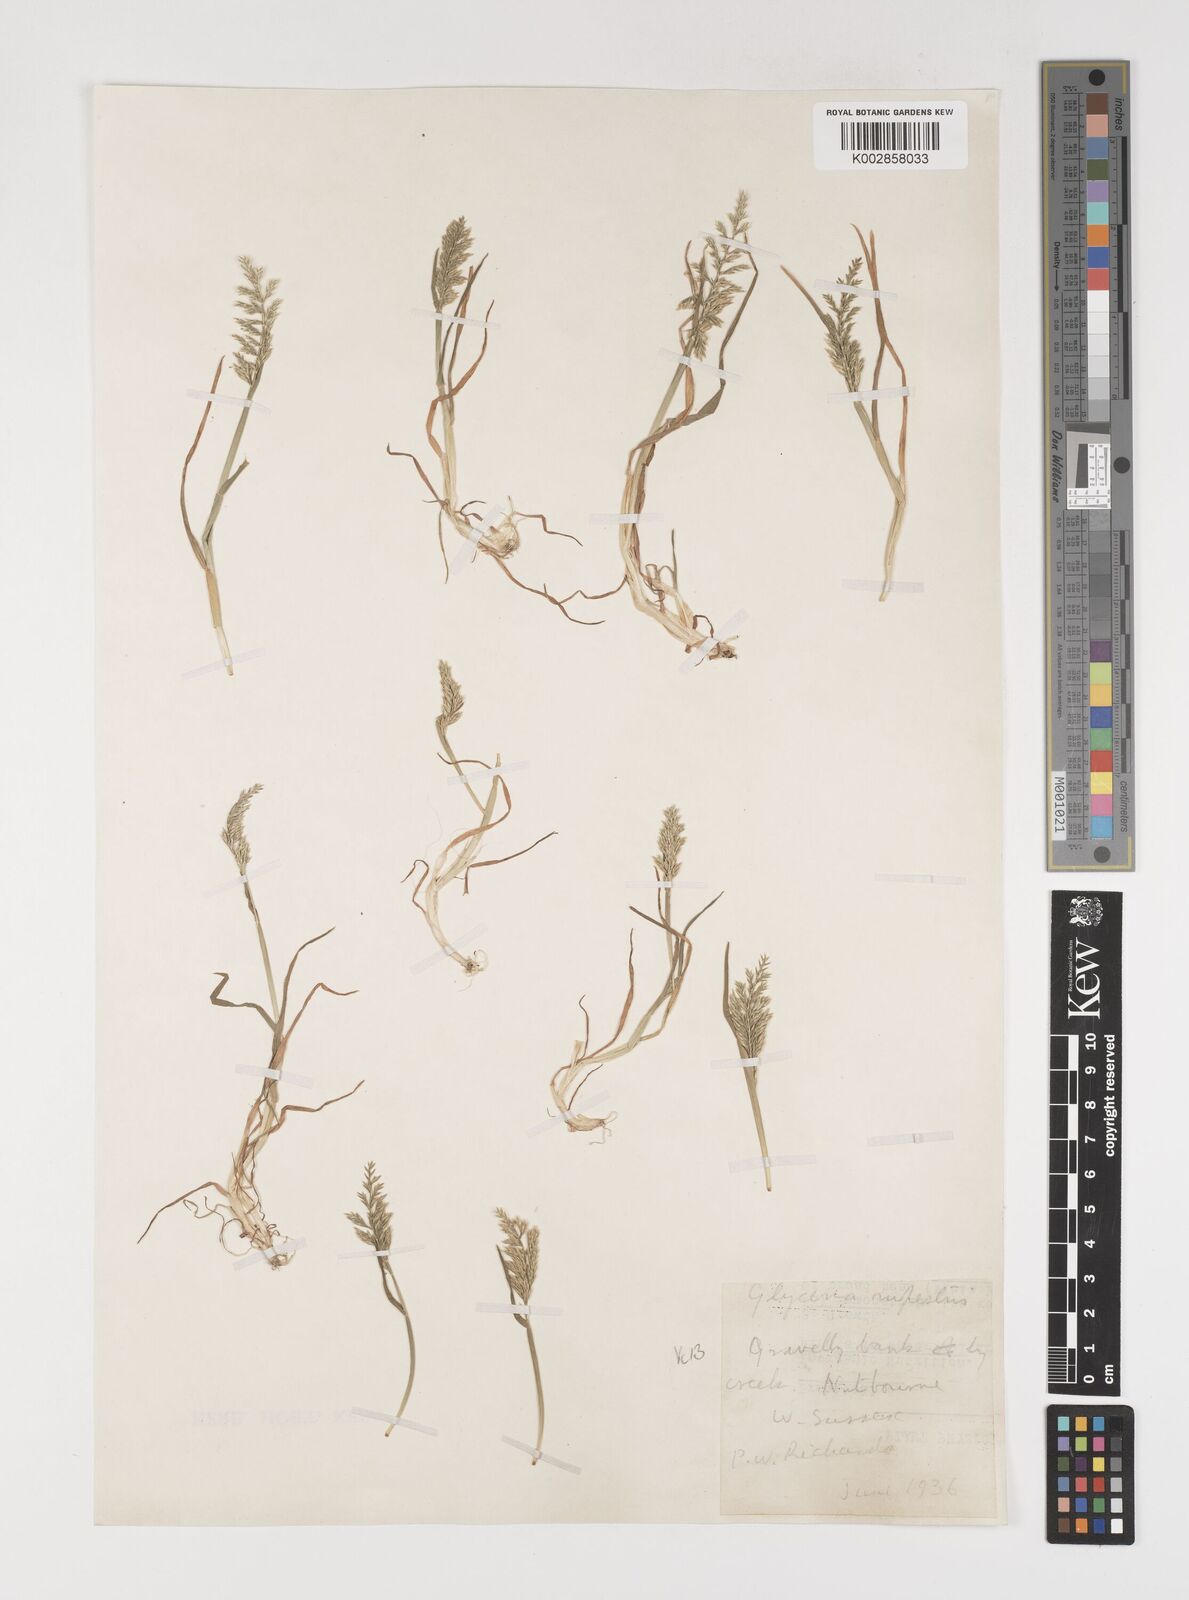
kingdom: Plantae
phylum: Tracheophyta
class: Liliopsida
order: Poales
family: Poaceae
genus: Puccinellia
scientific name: Puccinellia rupestris
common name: Stiff saltmarsh-grass
